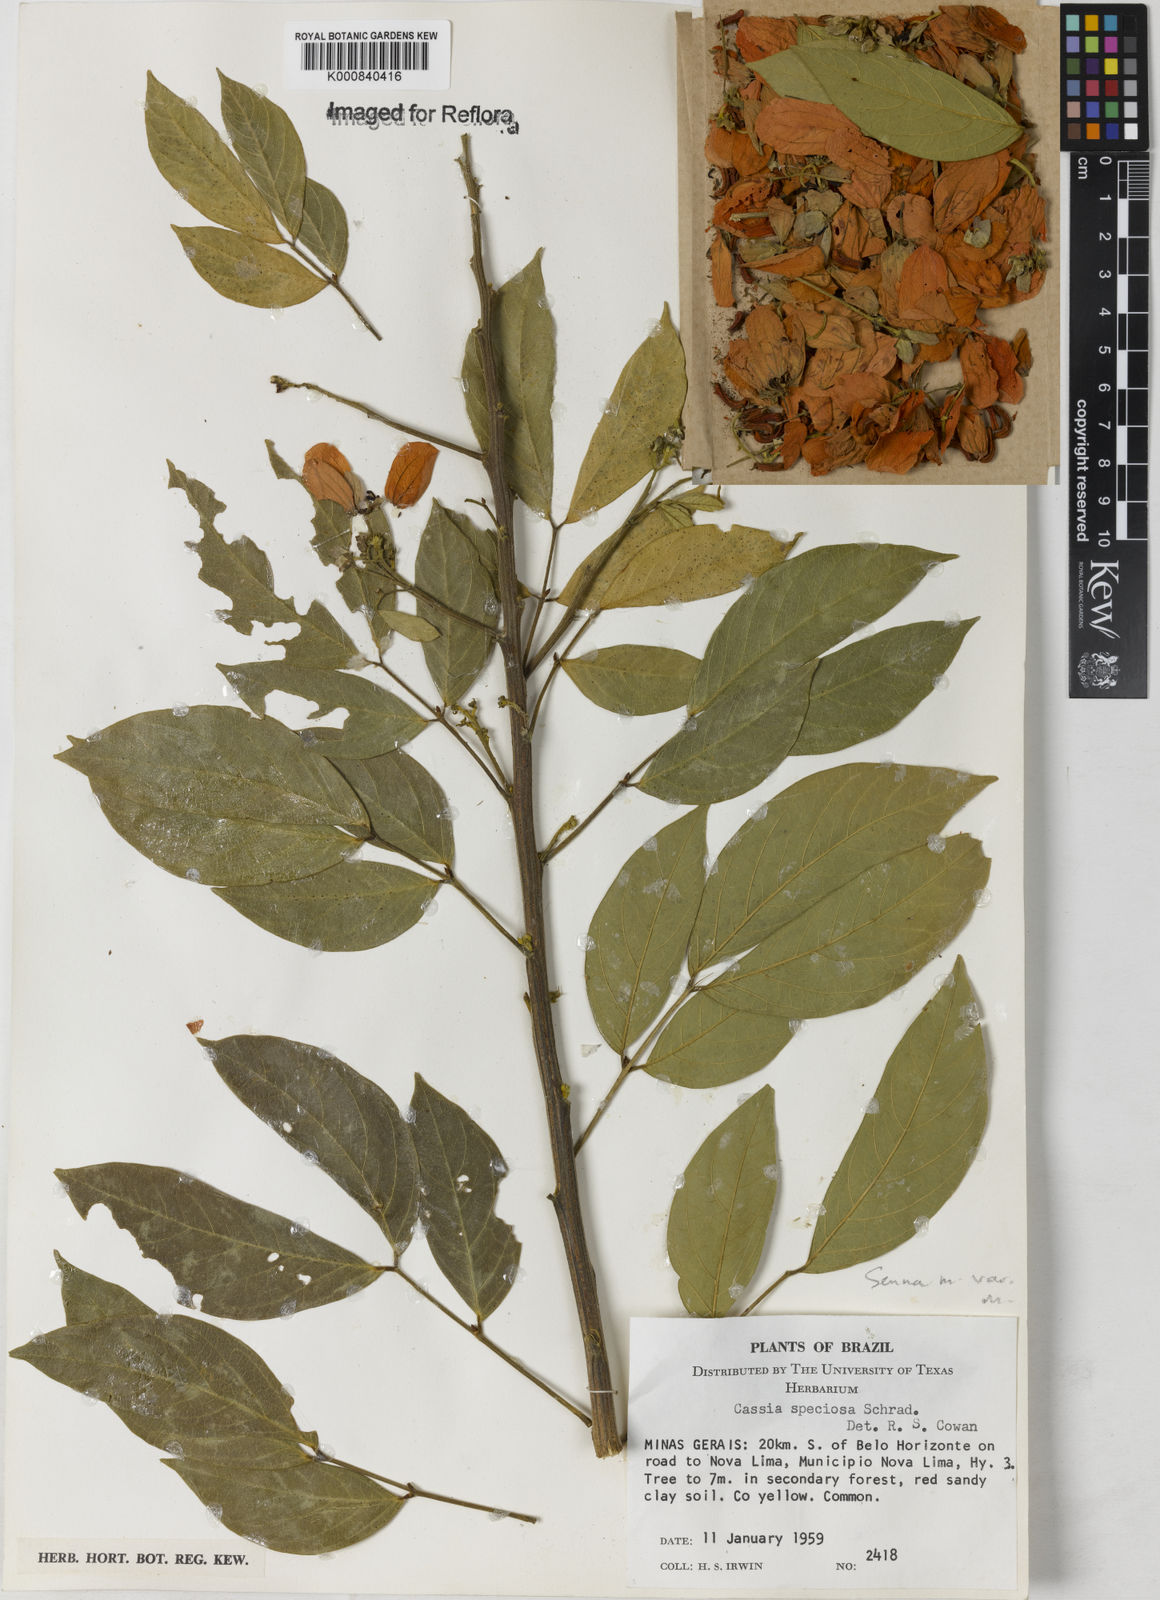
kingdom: Plantae
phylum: Tracheophyta
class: Magnoliopsida
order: Fabales
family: Fabaceae
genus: Senna
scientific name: Senna macranthera
